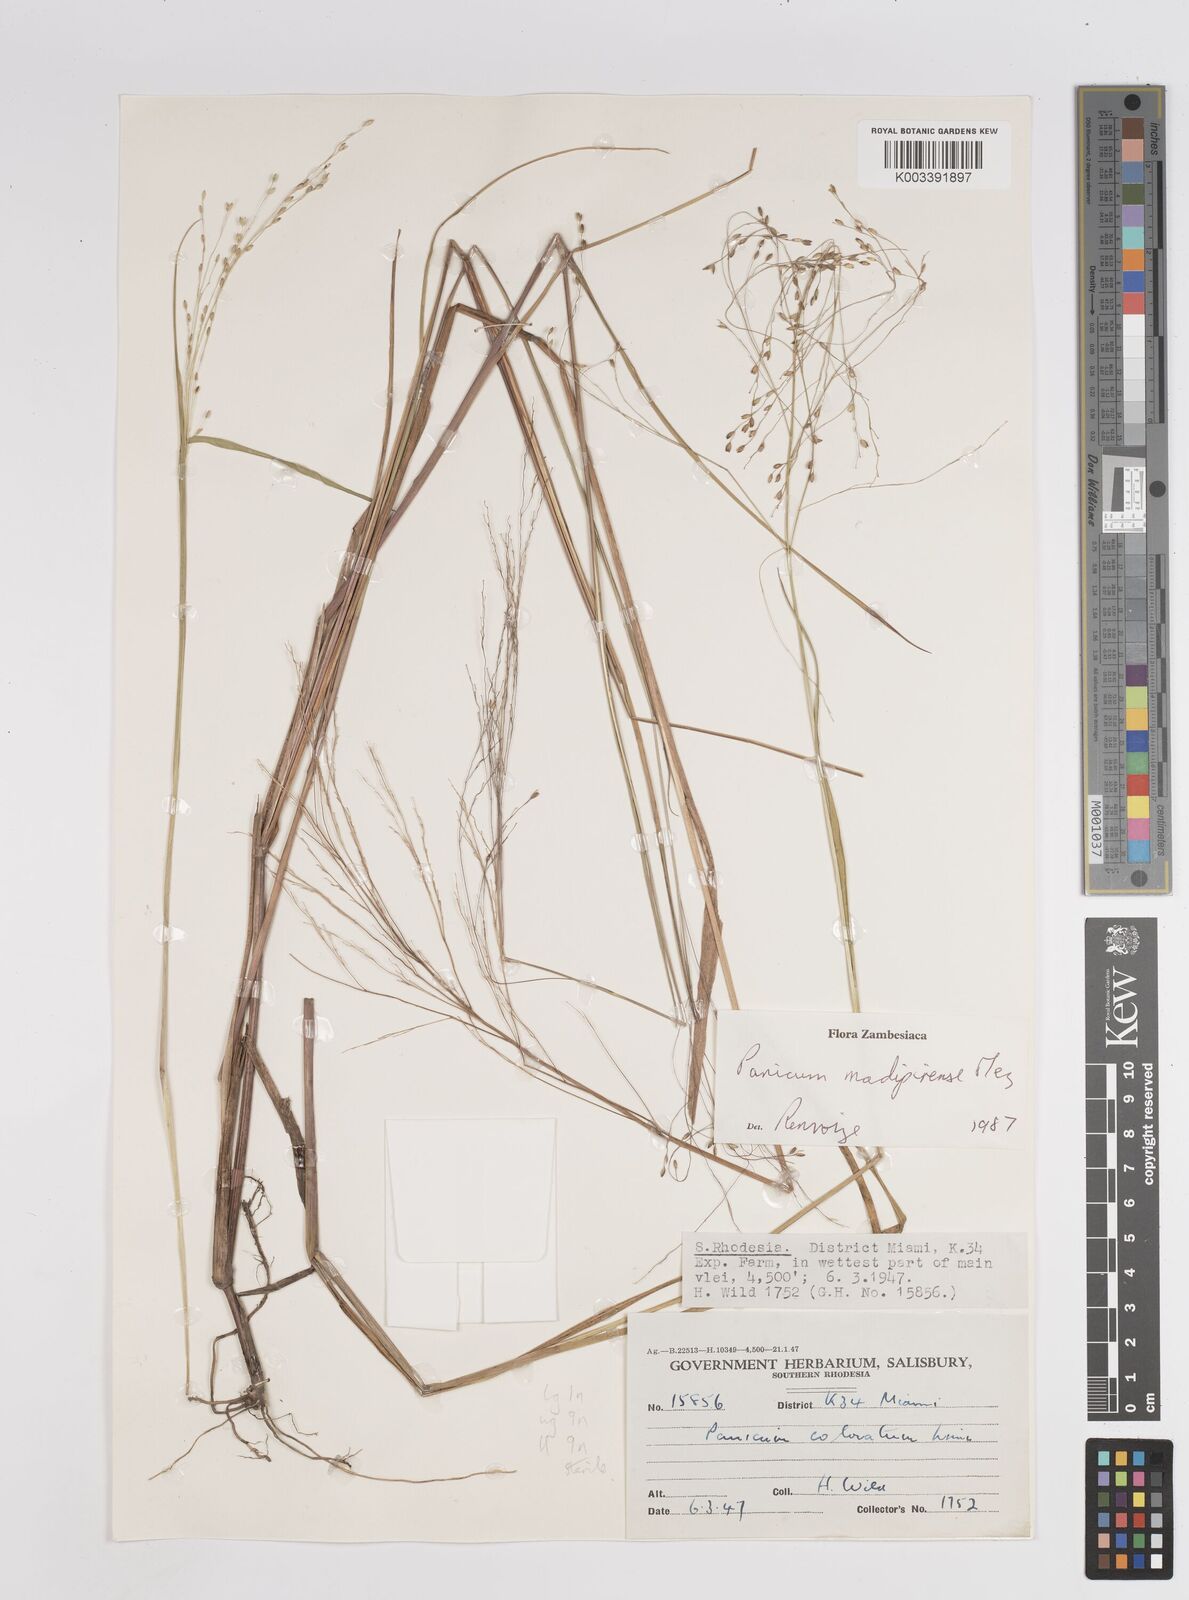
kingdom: Plantae
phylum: Tracheophyta
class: Liliopsida
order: Poales
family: Poaceae
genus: Panicum
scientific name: Panicum madipirense
